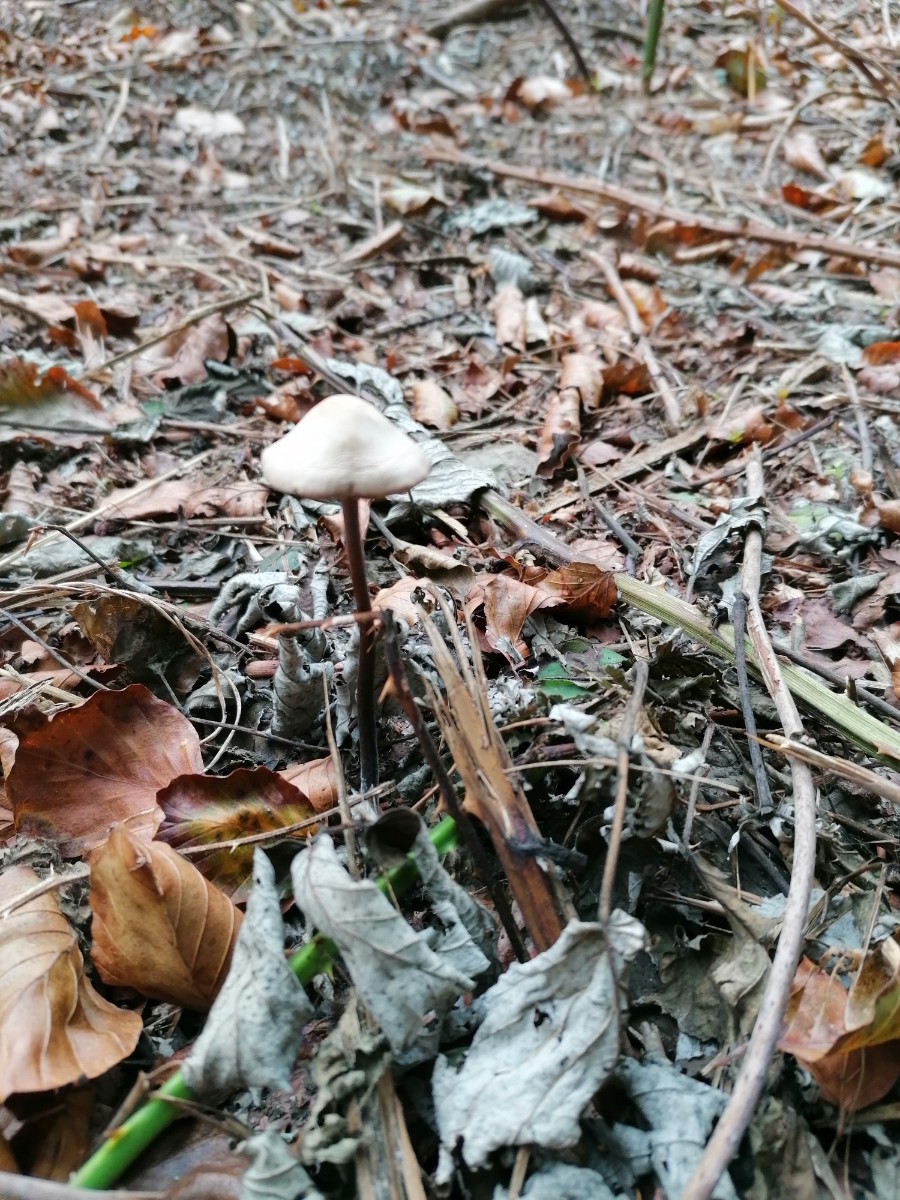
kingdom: Fungi
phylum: Basidiomycota
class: Agaricomycetes
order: Agaricales
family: Omphalotaceae
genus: Mycetinis
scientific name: Mycetinis alliaceus
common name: stor løghat
